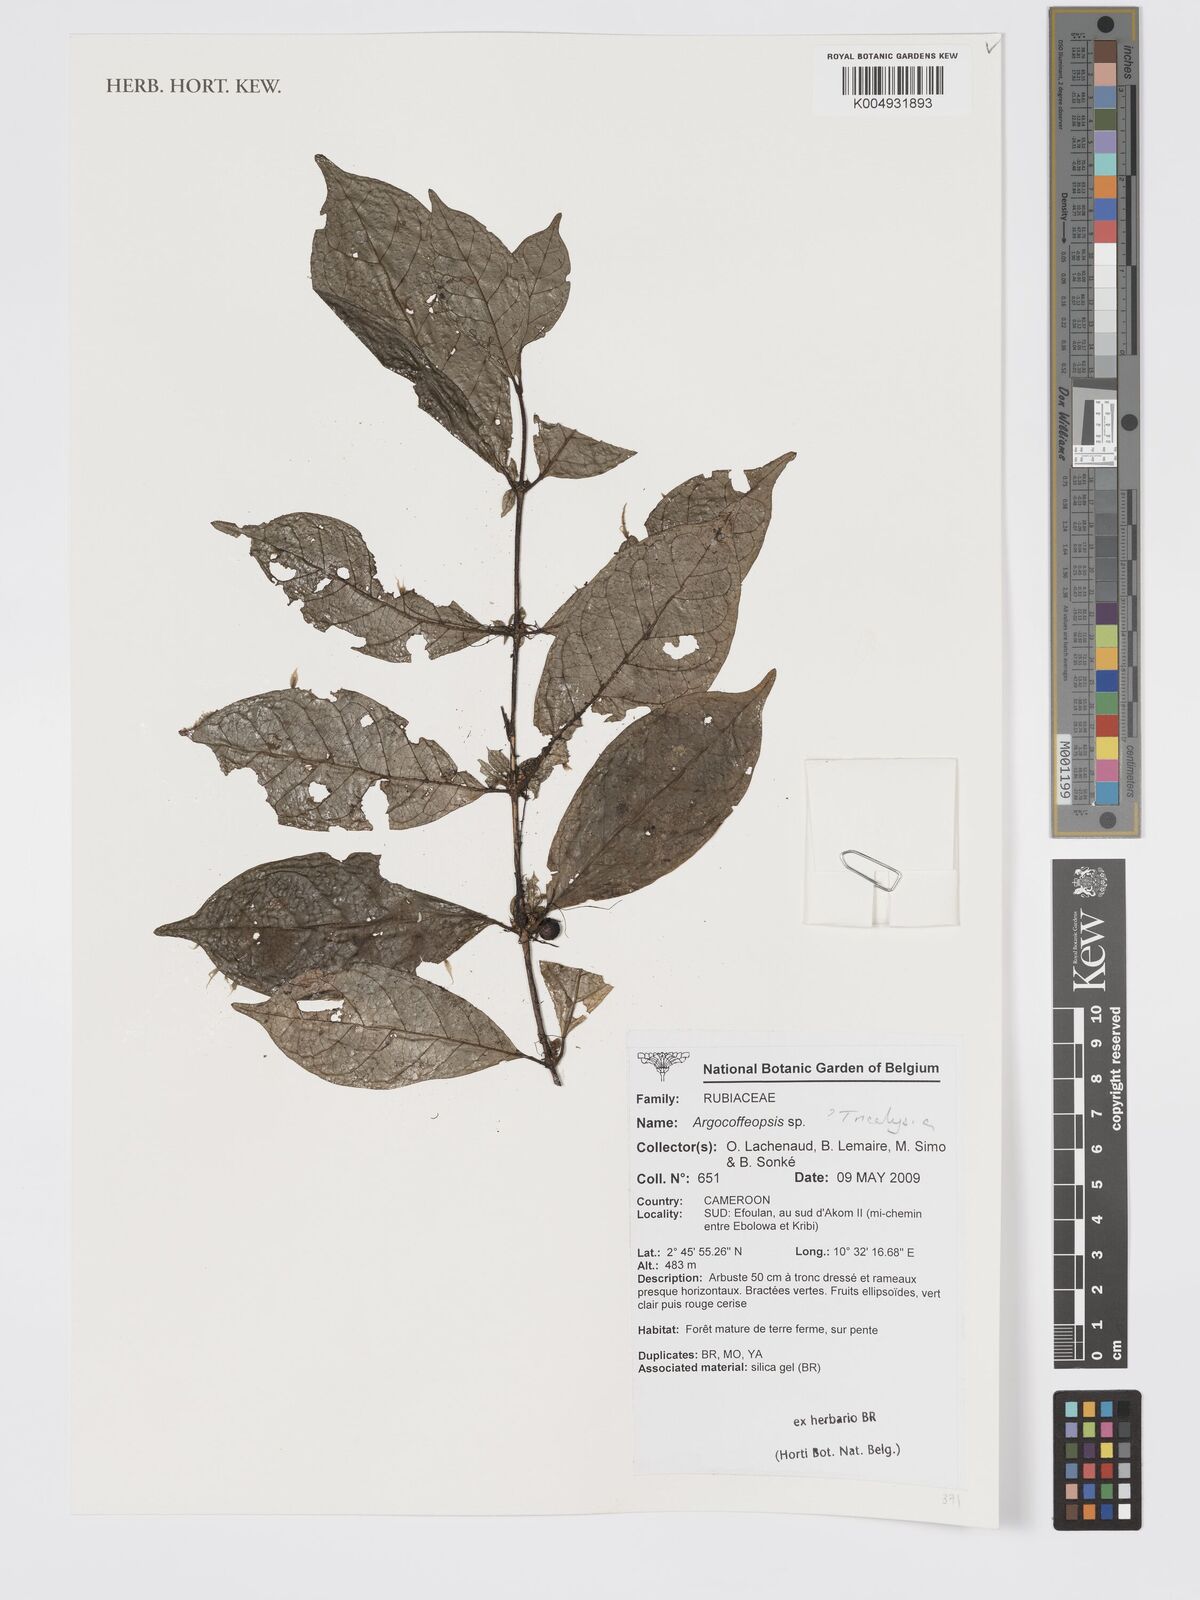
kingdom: Plantae
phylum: Tracheophyta
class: Magnoliopsida
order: Gentianales
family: Rubiaceae
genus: Tricalysia
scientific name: Tricalysia
